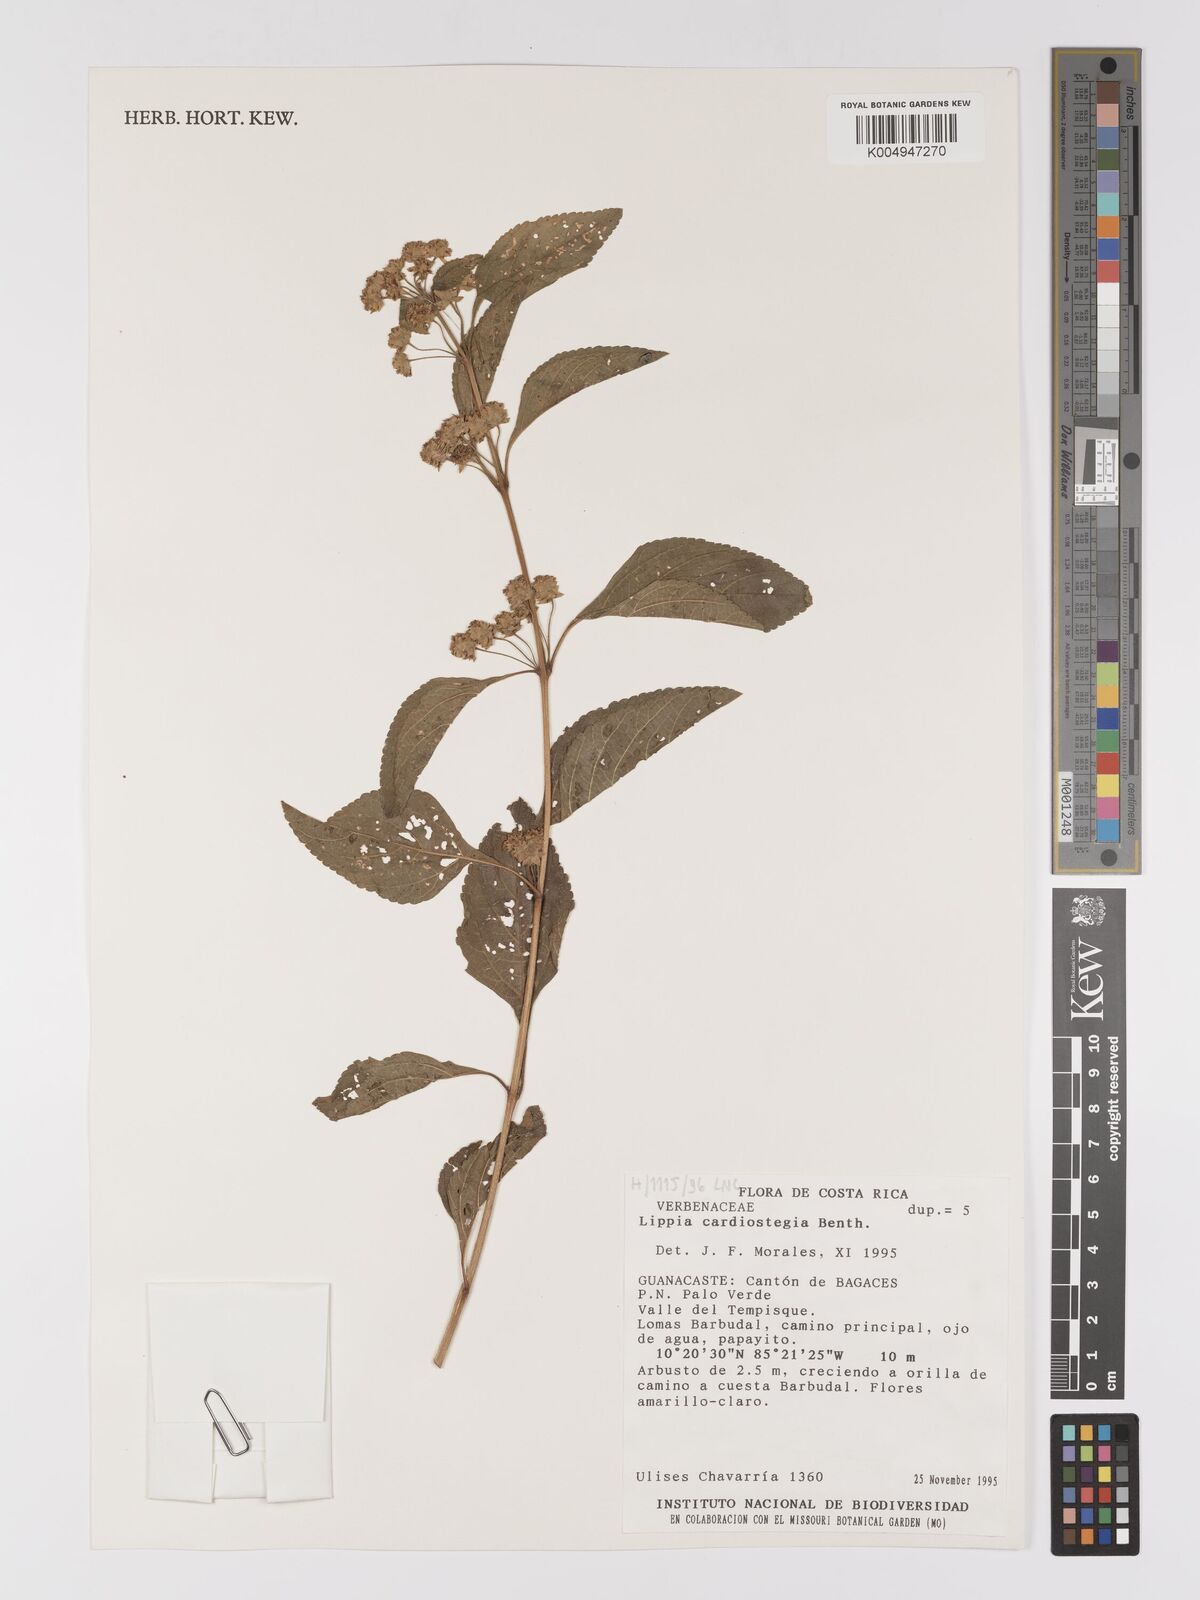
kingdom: Plantae
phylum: Tracheophyta
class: Magnoliopsida
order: Lamiales
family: Verbenaceae
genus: Lippia
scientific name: Lippia cardiostegia
